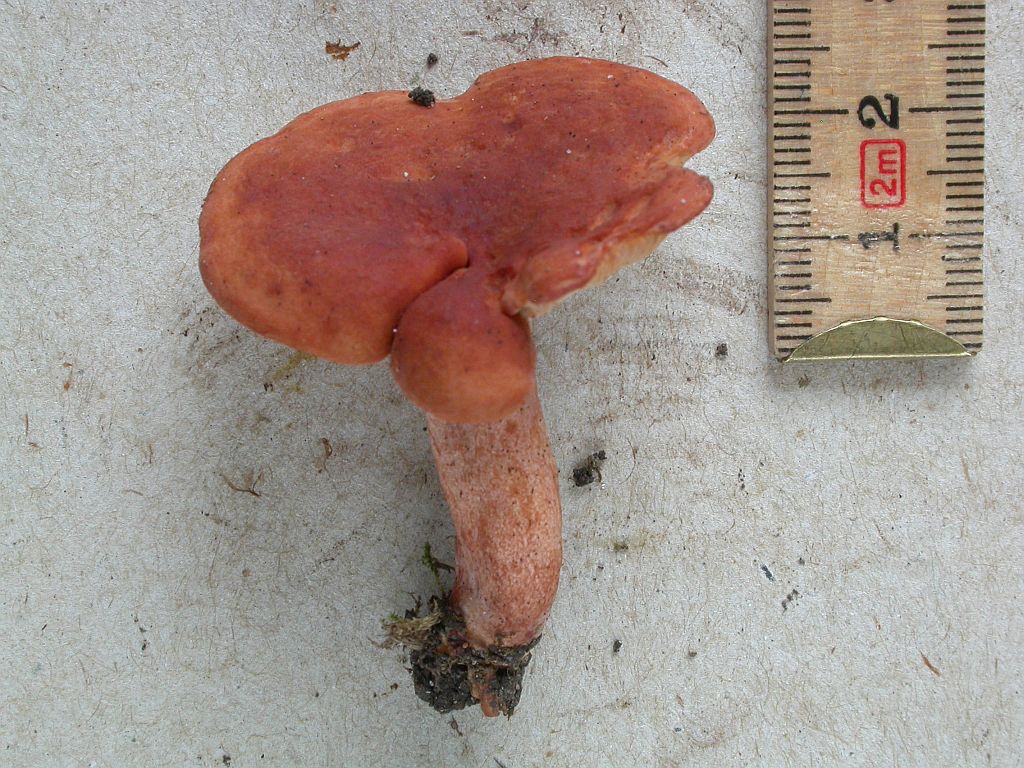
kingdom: Fungi
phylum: Basidiomycota
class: Agaricomycetes
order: Russulales
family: Russulaceae
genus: Lactarius
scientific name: Lactarius fulvissimus
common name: ræve-mælkehat
